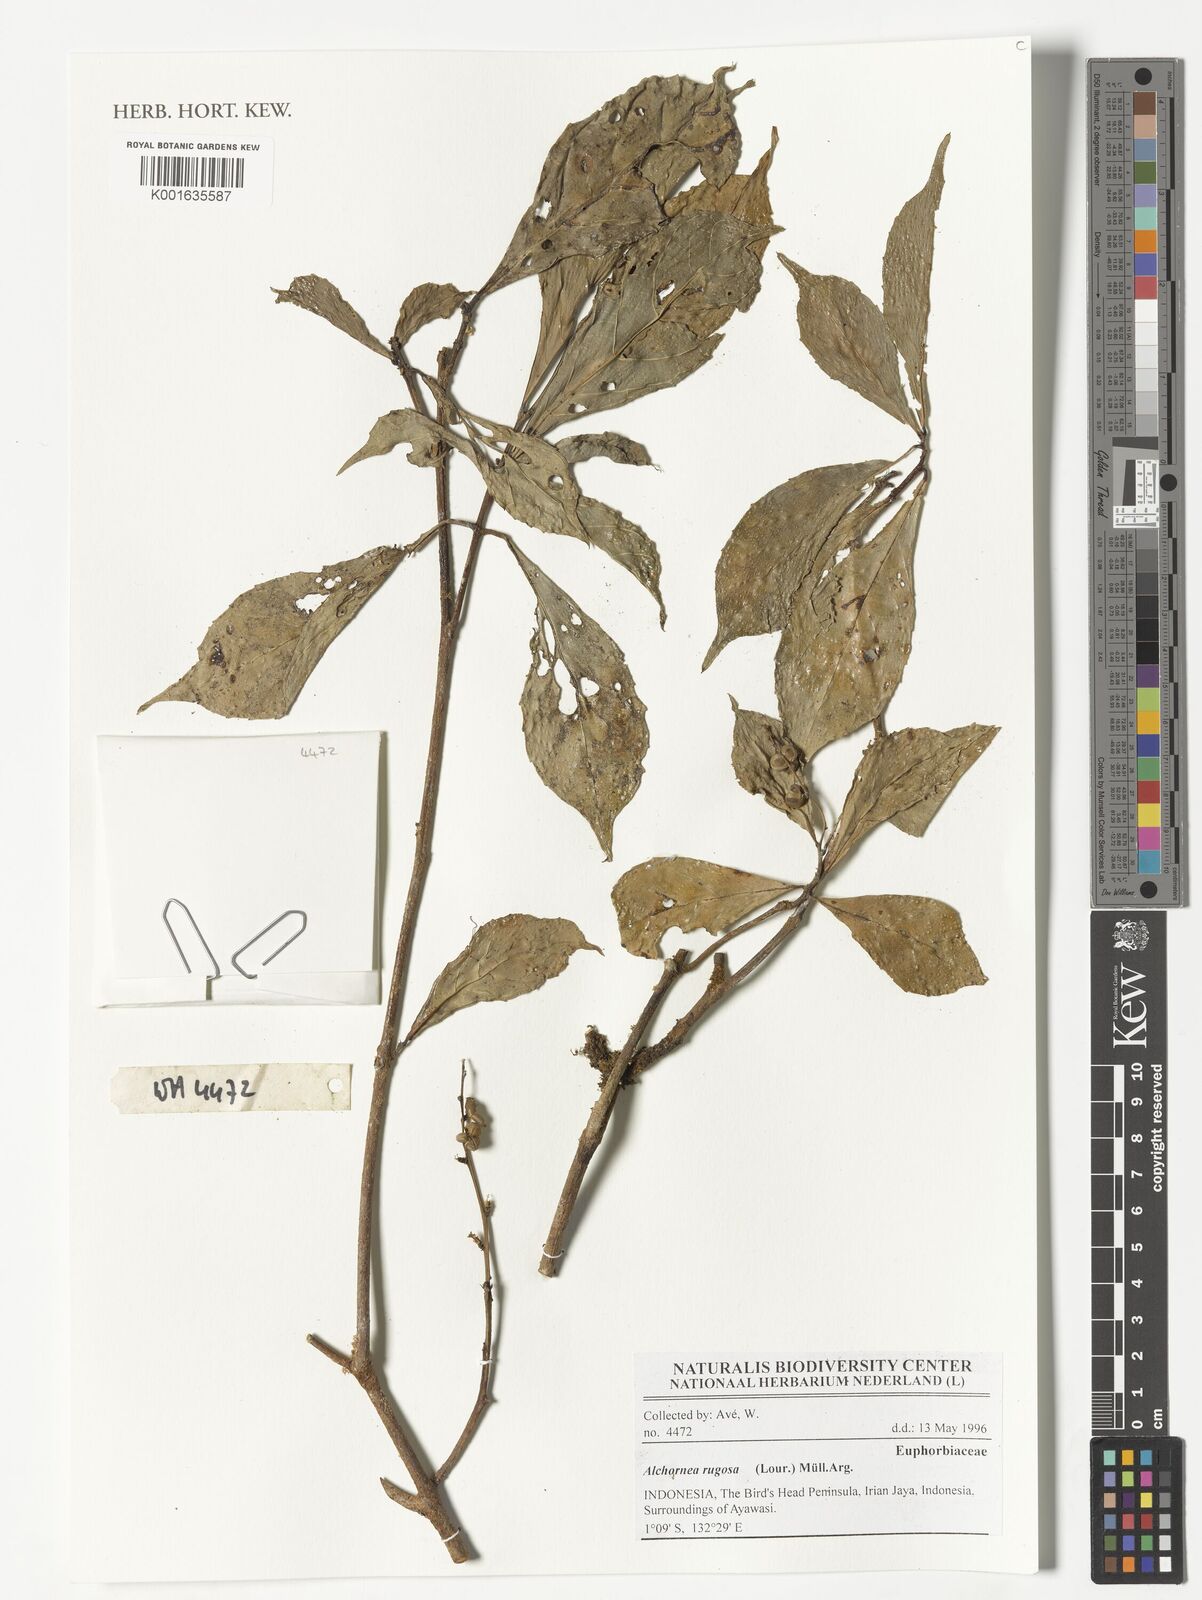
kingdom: Plantae
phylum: Tracheophyta
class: Magnoliopsida
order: Malpighiales
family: Euphorbiaceae
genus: Alchornea
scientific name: Alchornea rugosa
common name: Alchorntree
